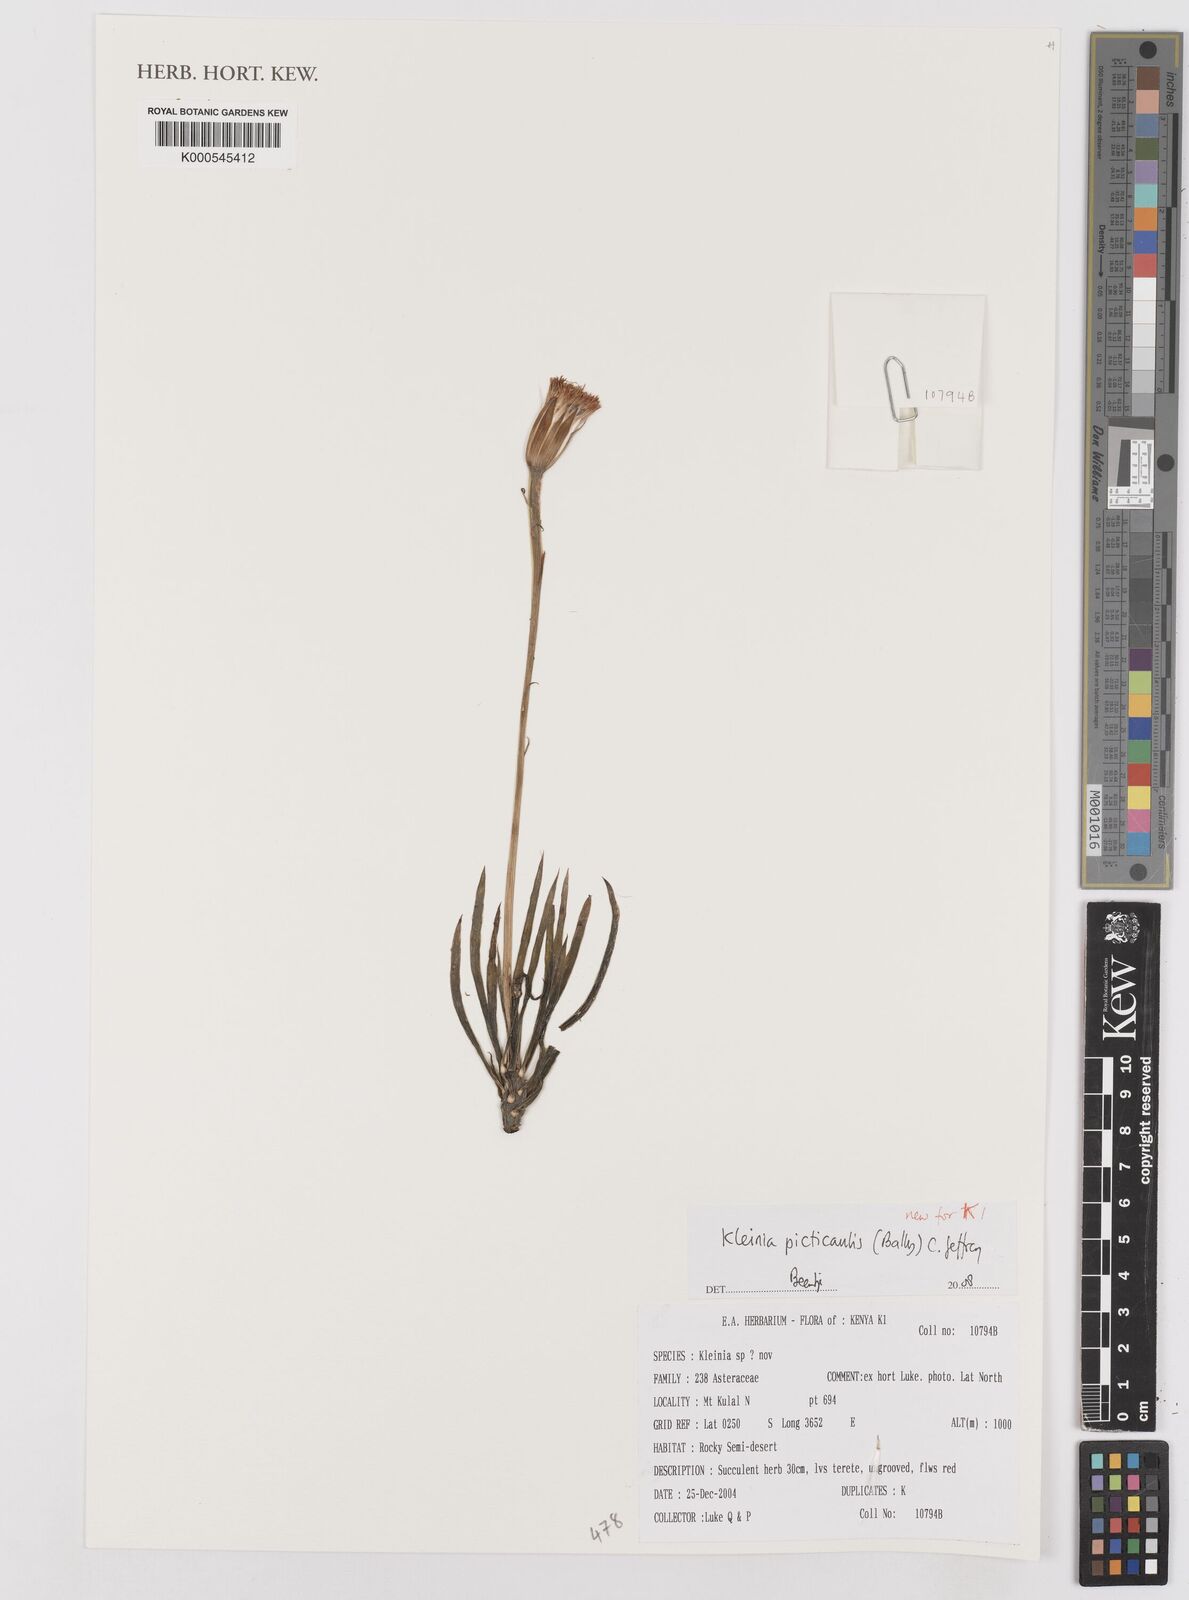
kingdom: Plantae
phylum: Tracheophyta
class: Magnoliopsida
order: Asterales
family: Asteraceae
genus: Kleinia
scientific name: Kleinia picticaulis
